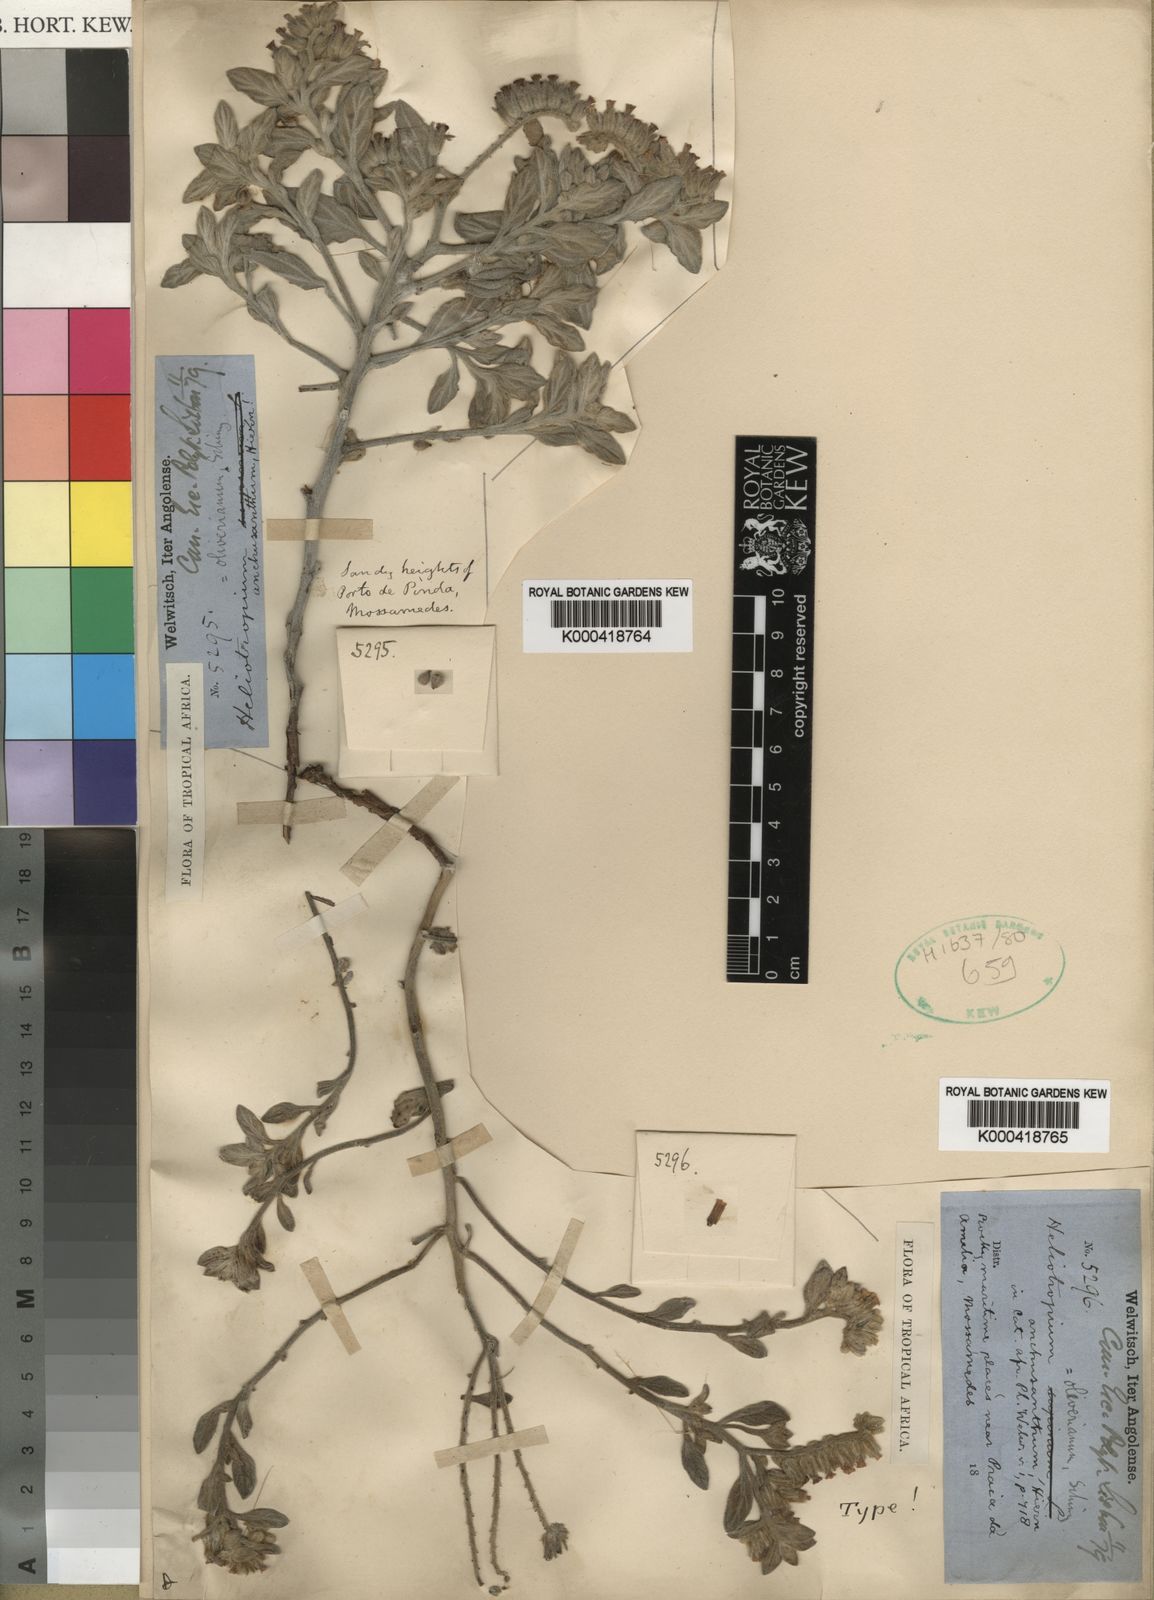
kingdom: Plantae
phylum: Tracheophyta
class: Magnoliopsida
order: Boraginales
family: Heliotropiaceae
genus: Heliotropium
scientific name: Heliotropium oliverianum
